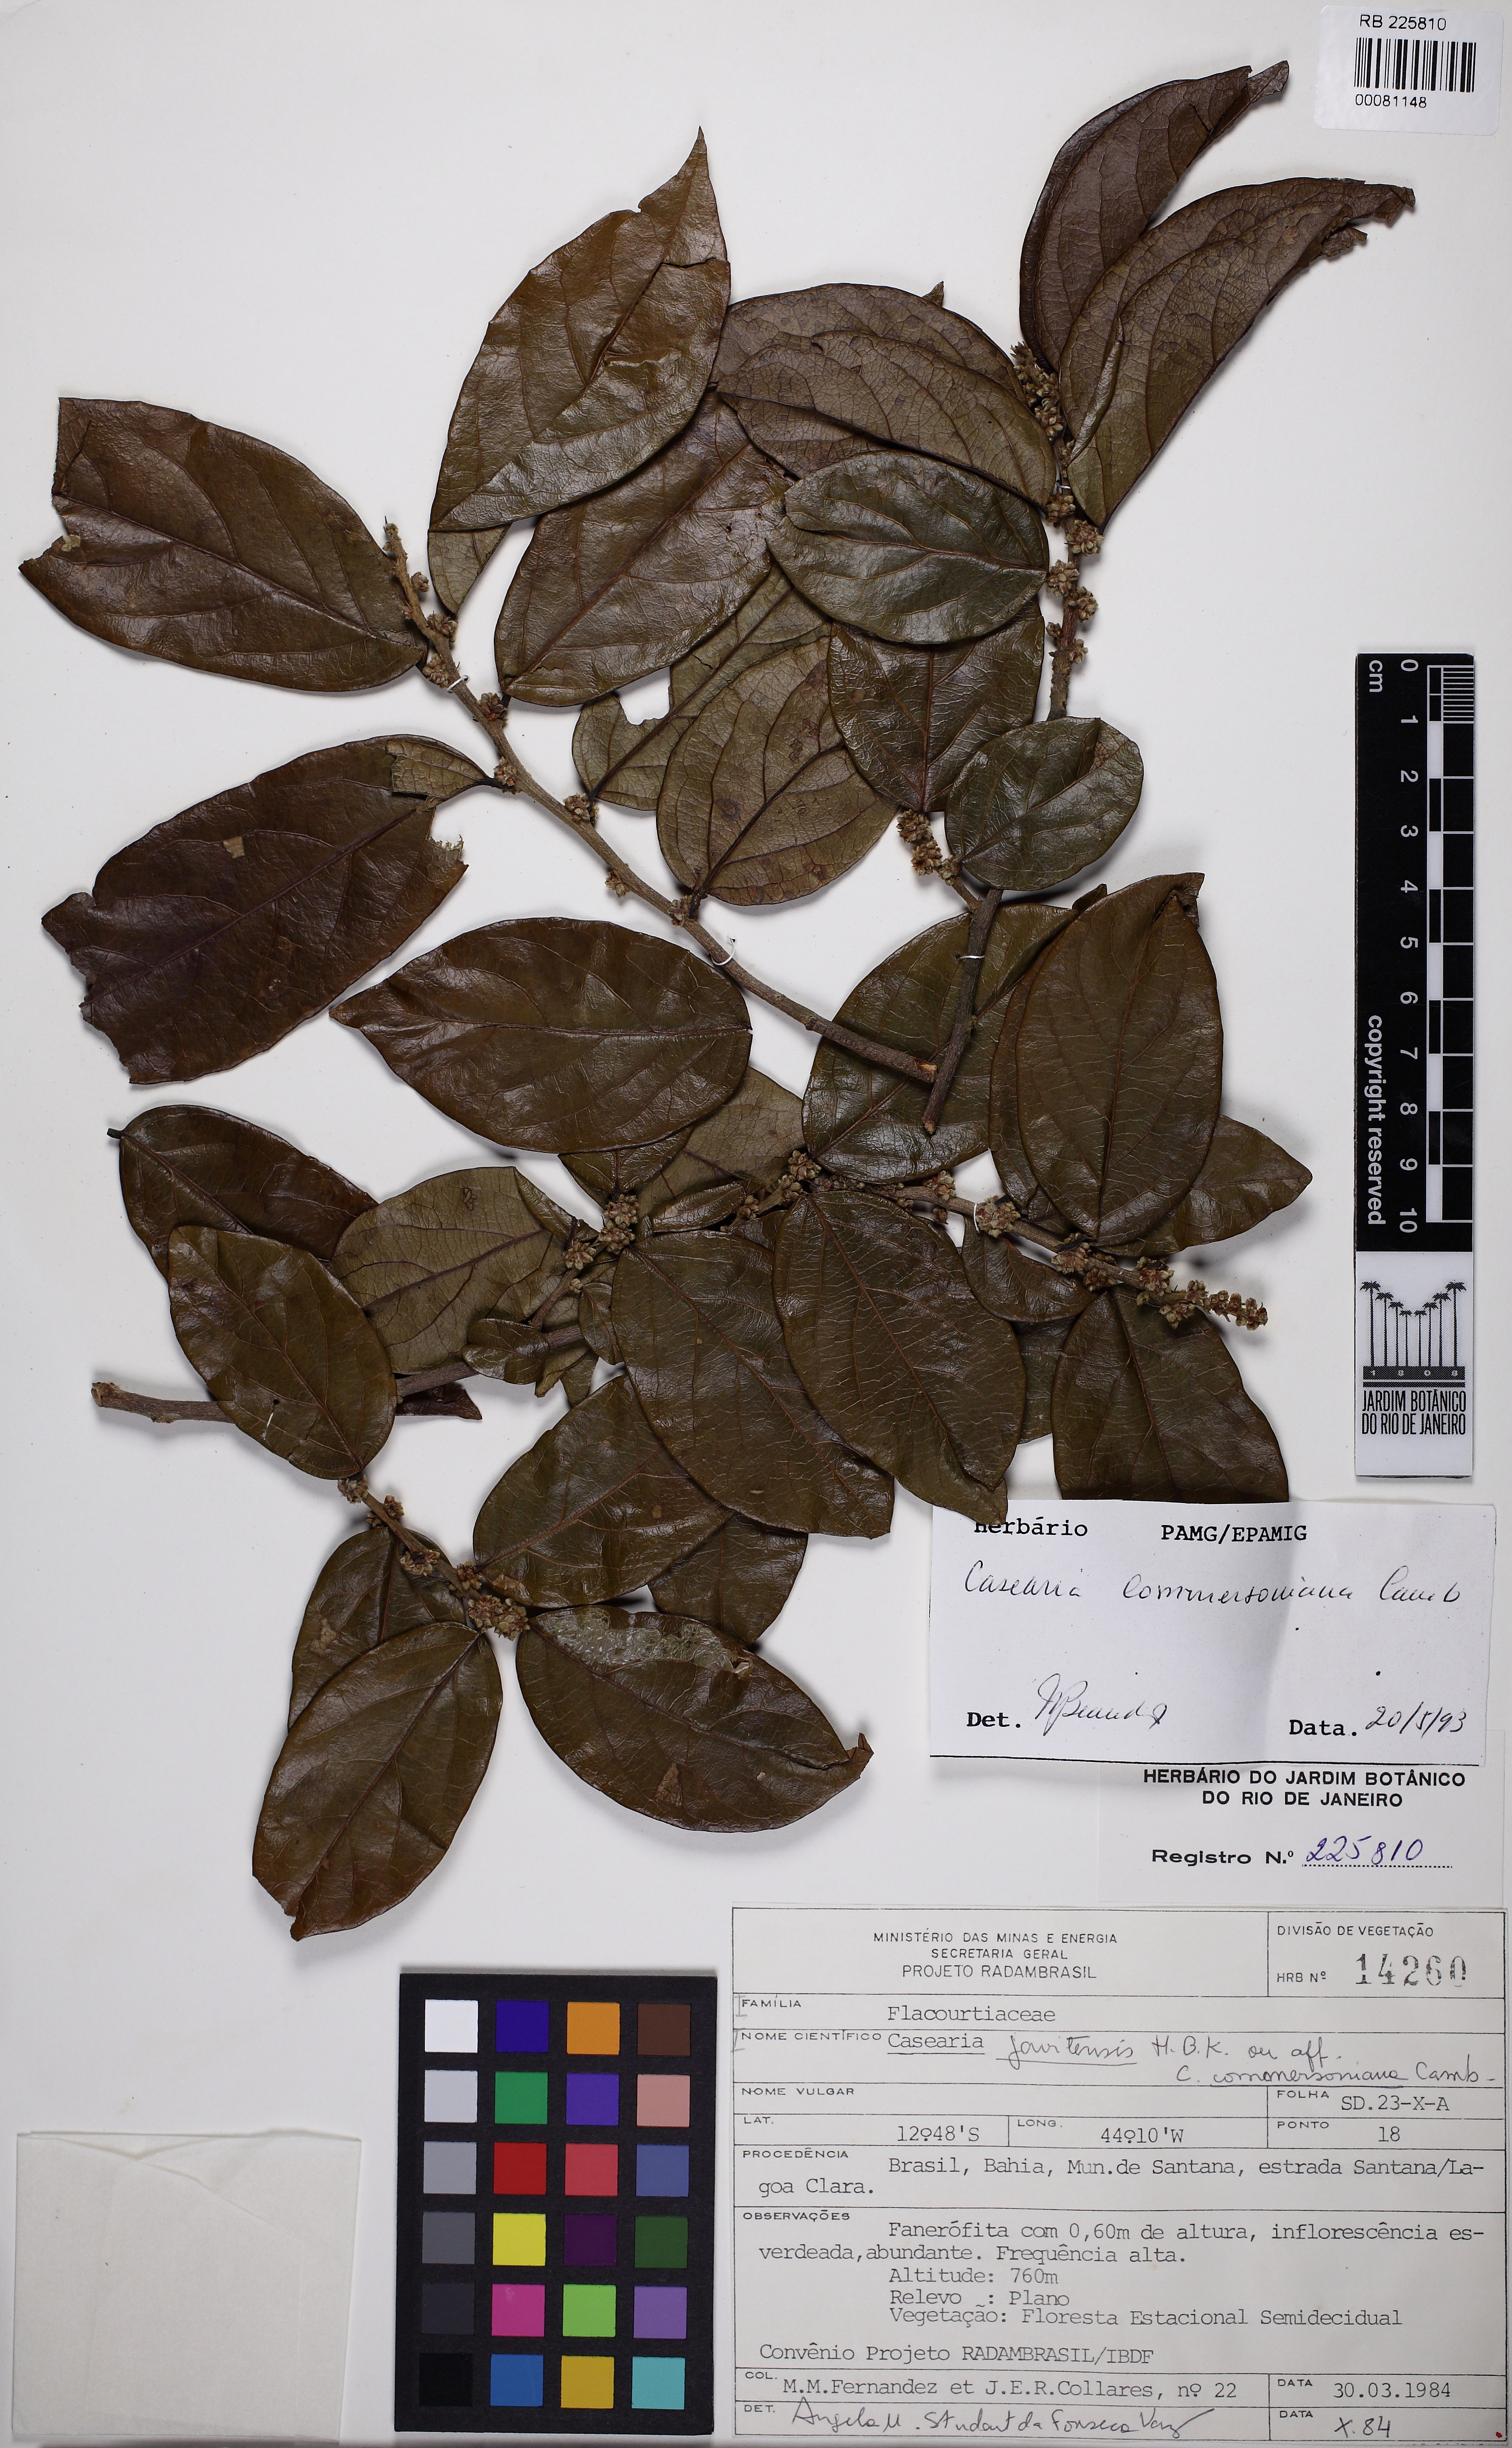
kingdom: Plantae
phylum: Tracheophyta
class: Magnoliopsida
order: Malpighiales
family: Salicaceae
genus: Piparea
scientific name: Piparea dentata
